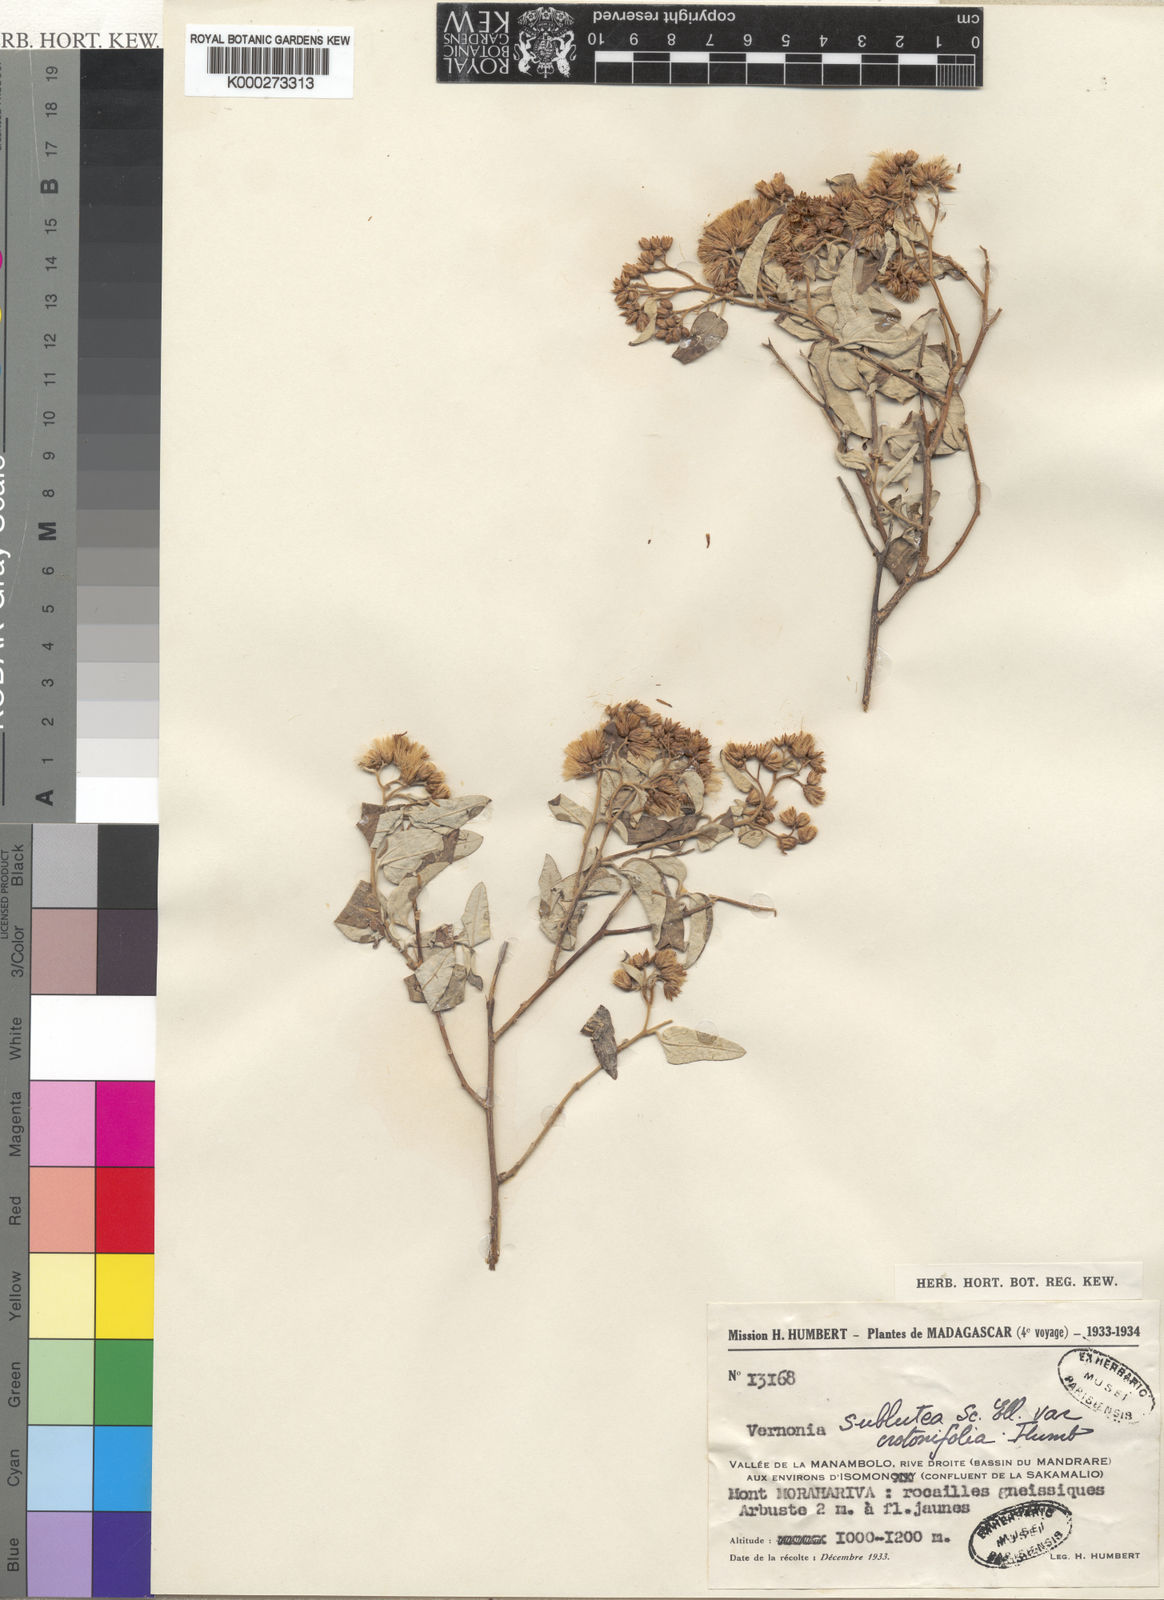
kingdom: Plantae
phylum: Tracheophyta
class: Magnoliopsida
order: Asterales
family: Asteraceae
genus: Distephanus
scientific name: Distephanus subluteus
